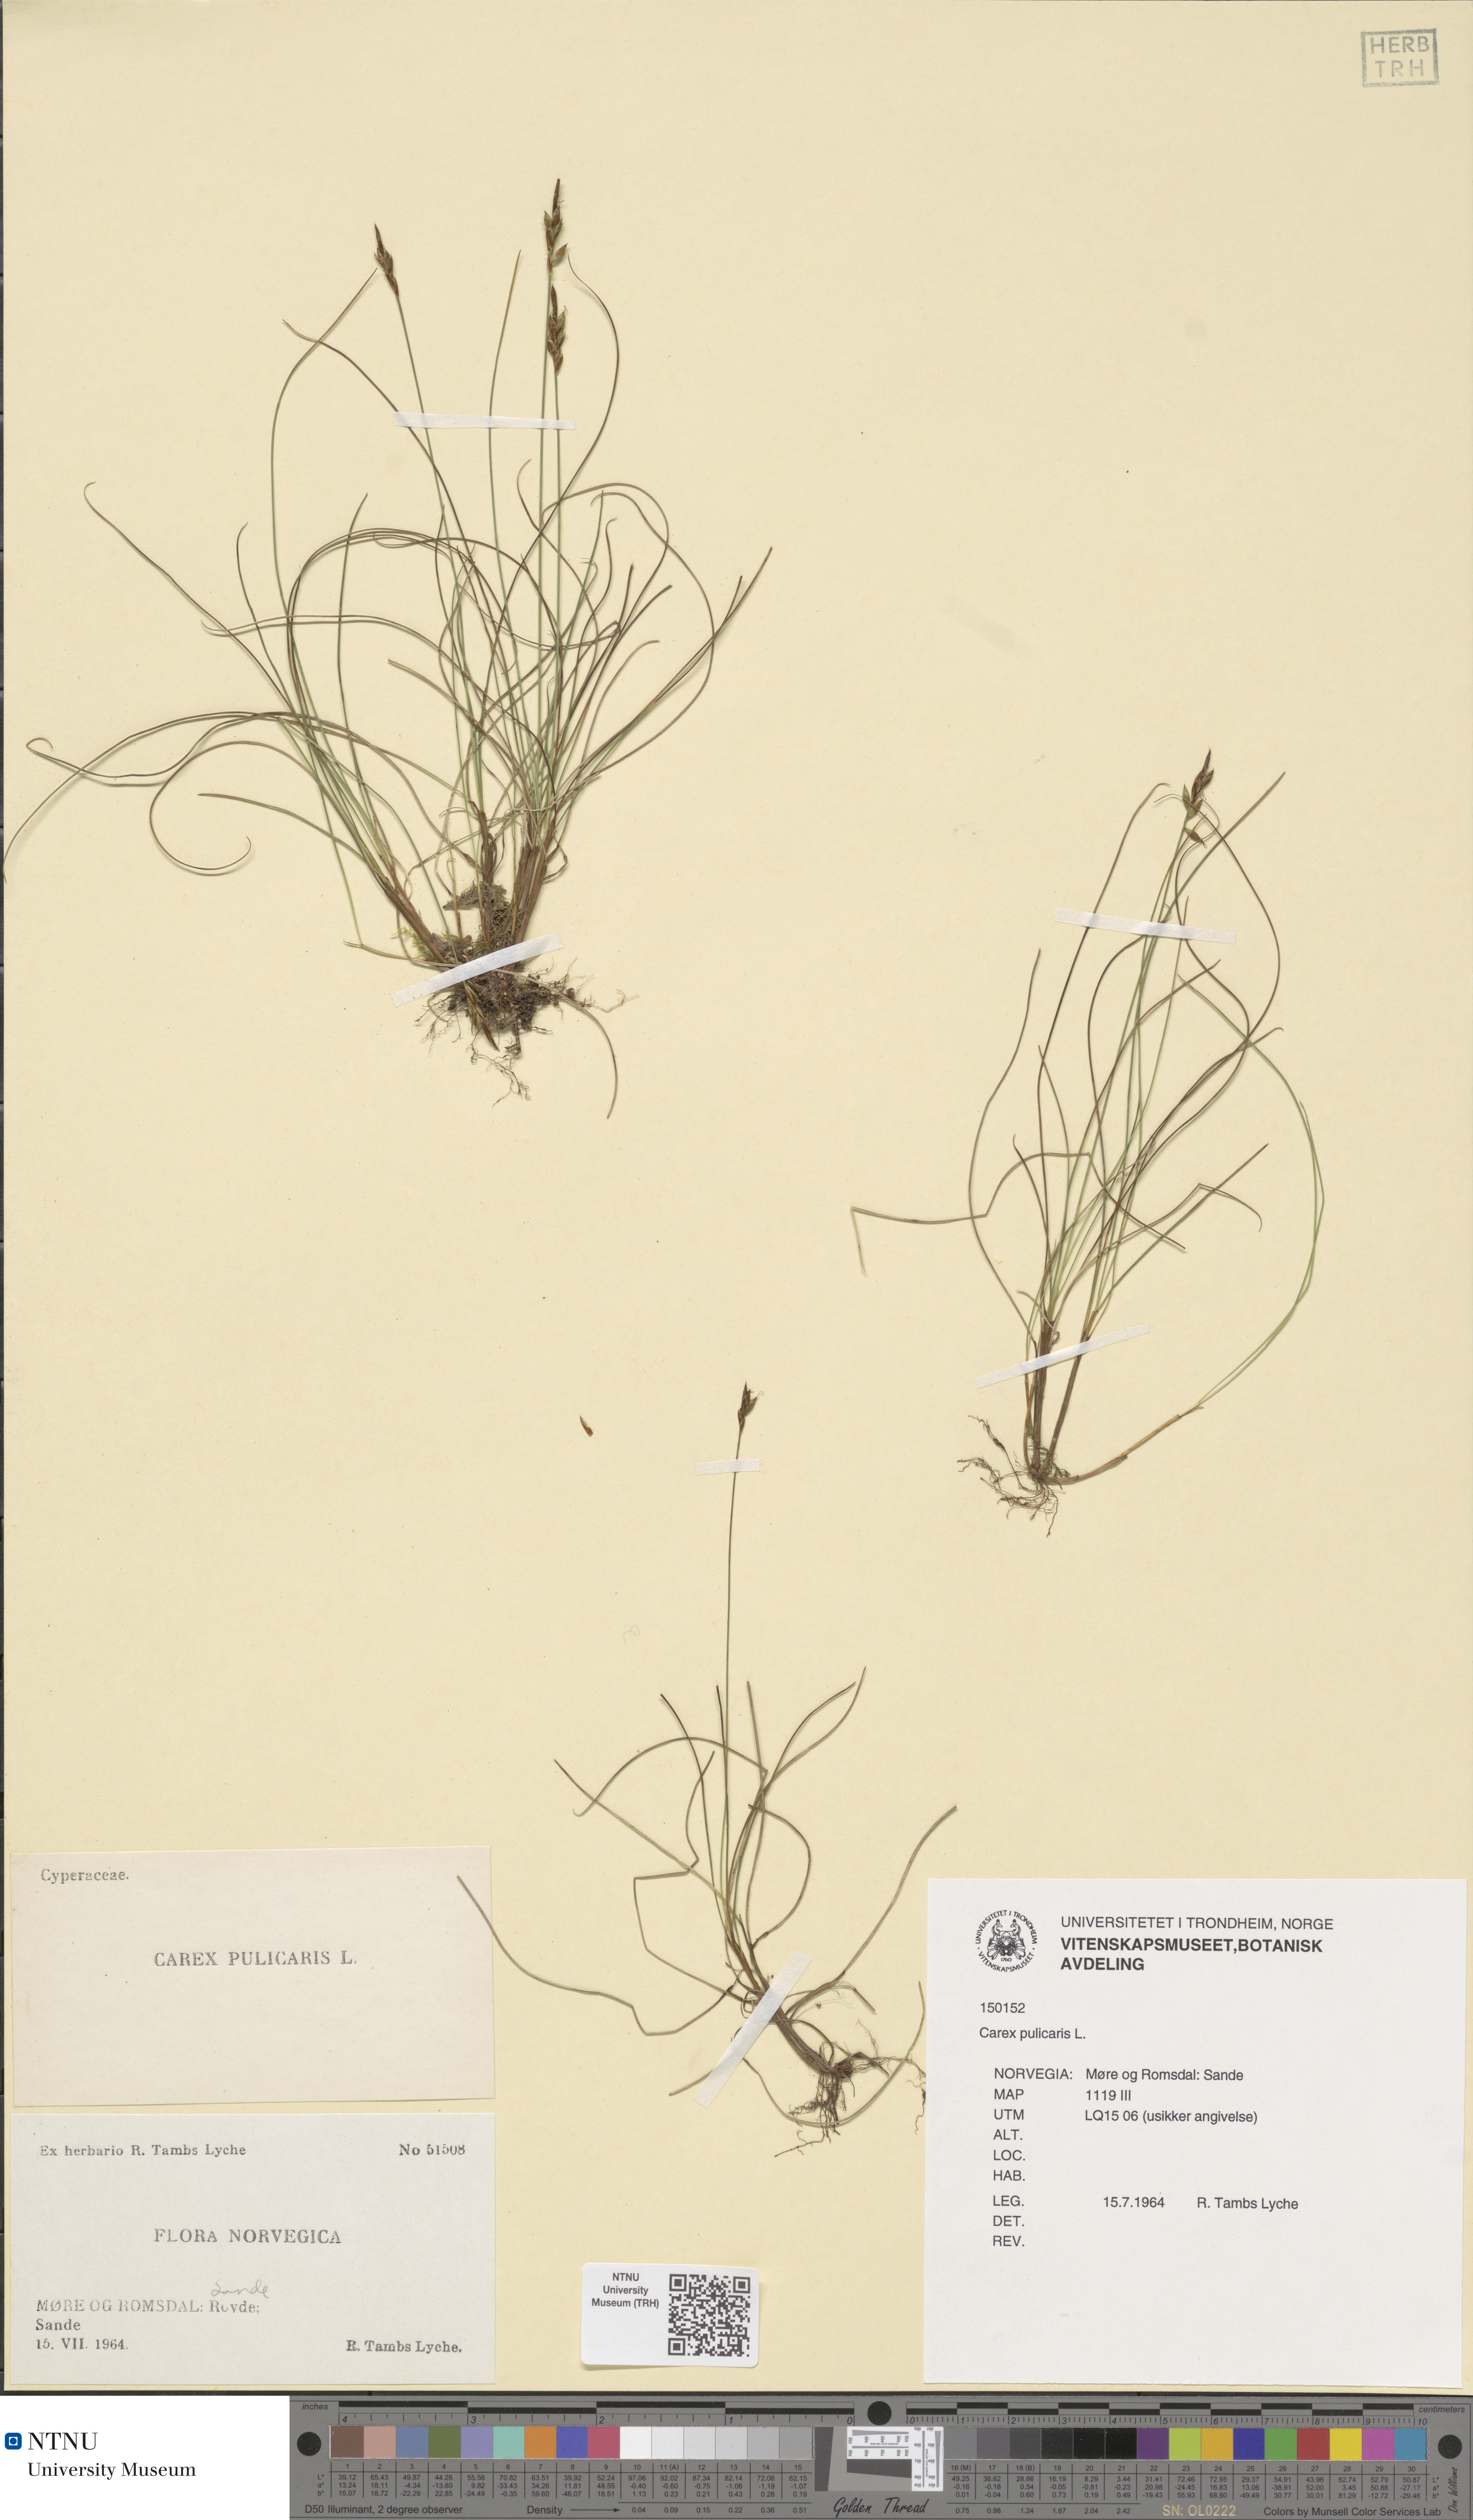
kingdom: Plantae
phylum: Tracheophyta
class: Liliopsida
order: Poales
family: Cyperaceae
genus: Carex
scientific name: Carex pulicaris
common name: Flea sedge
